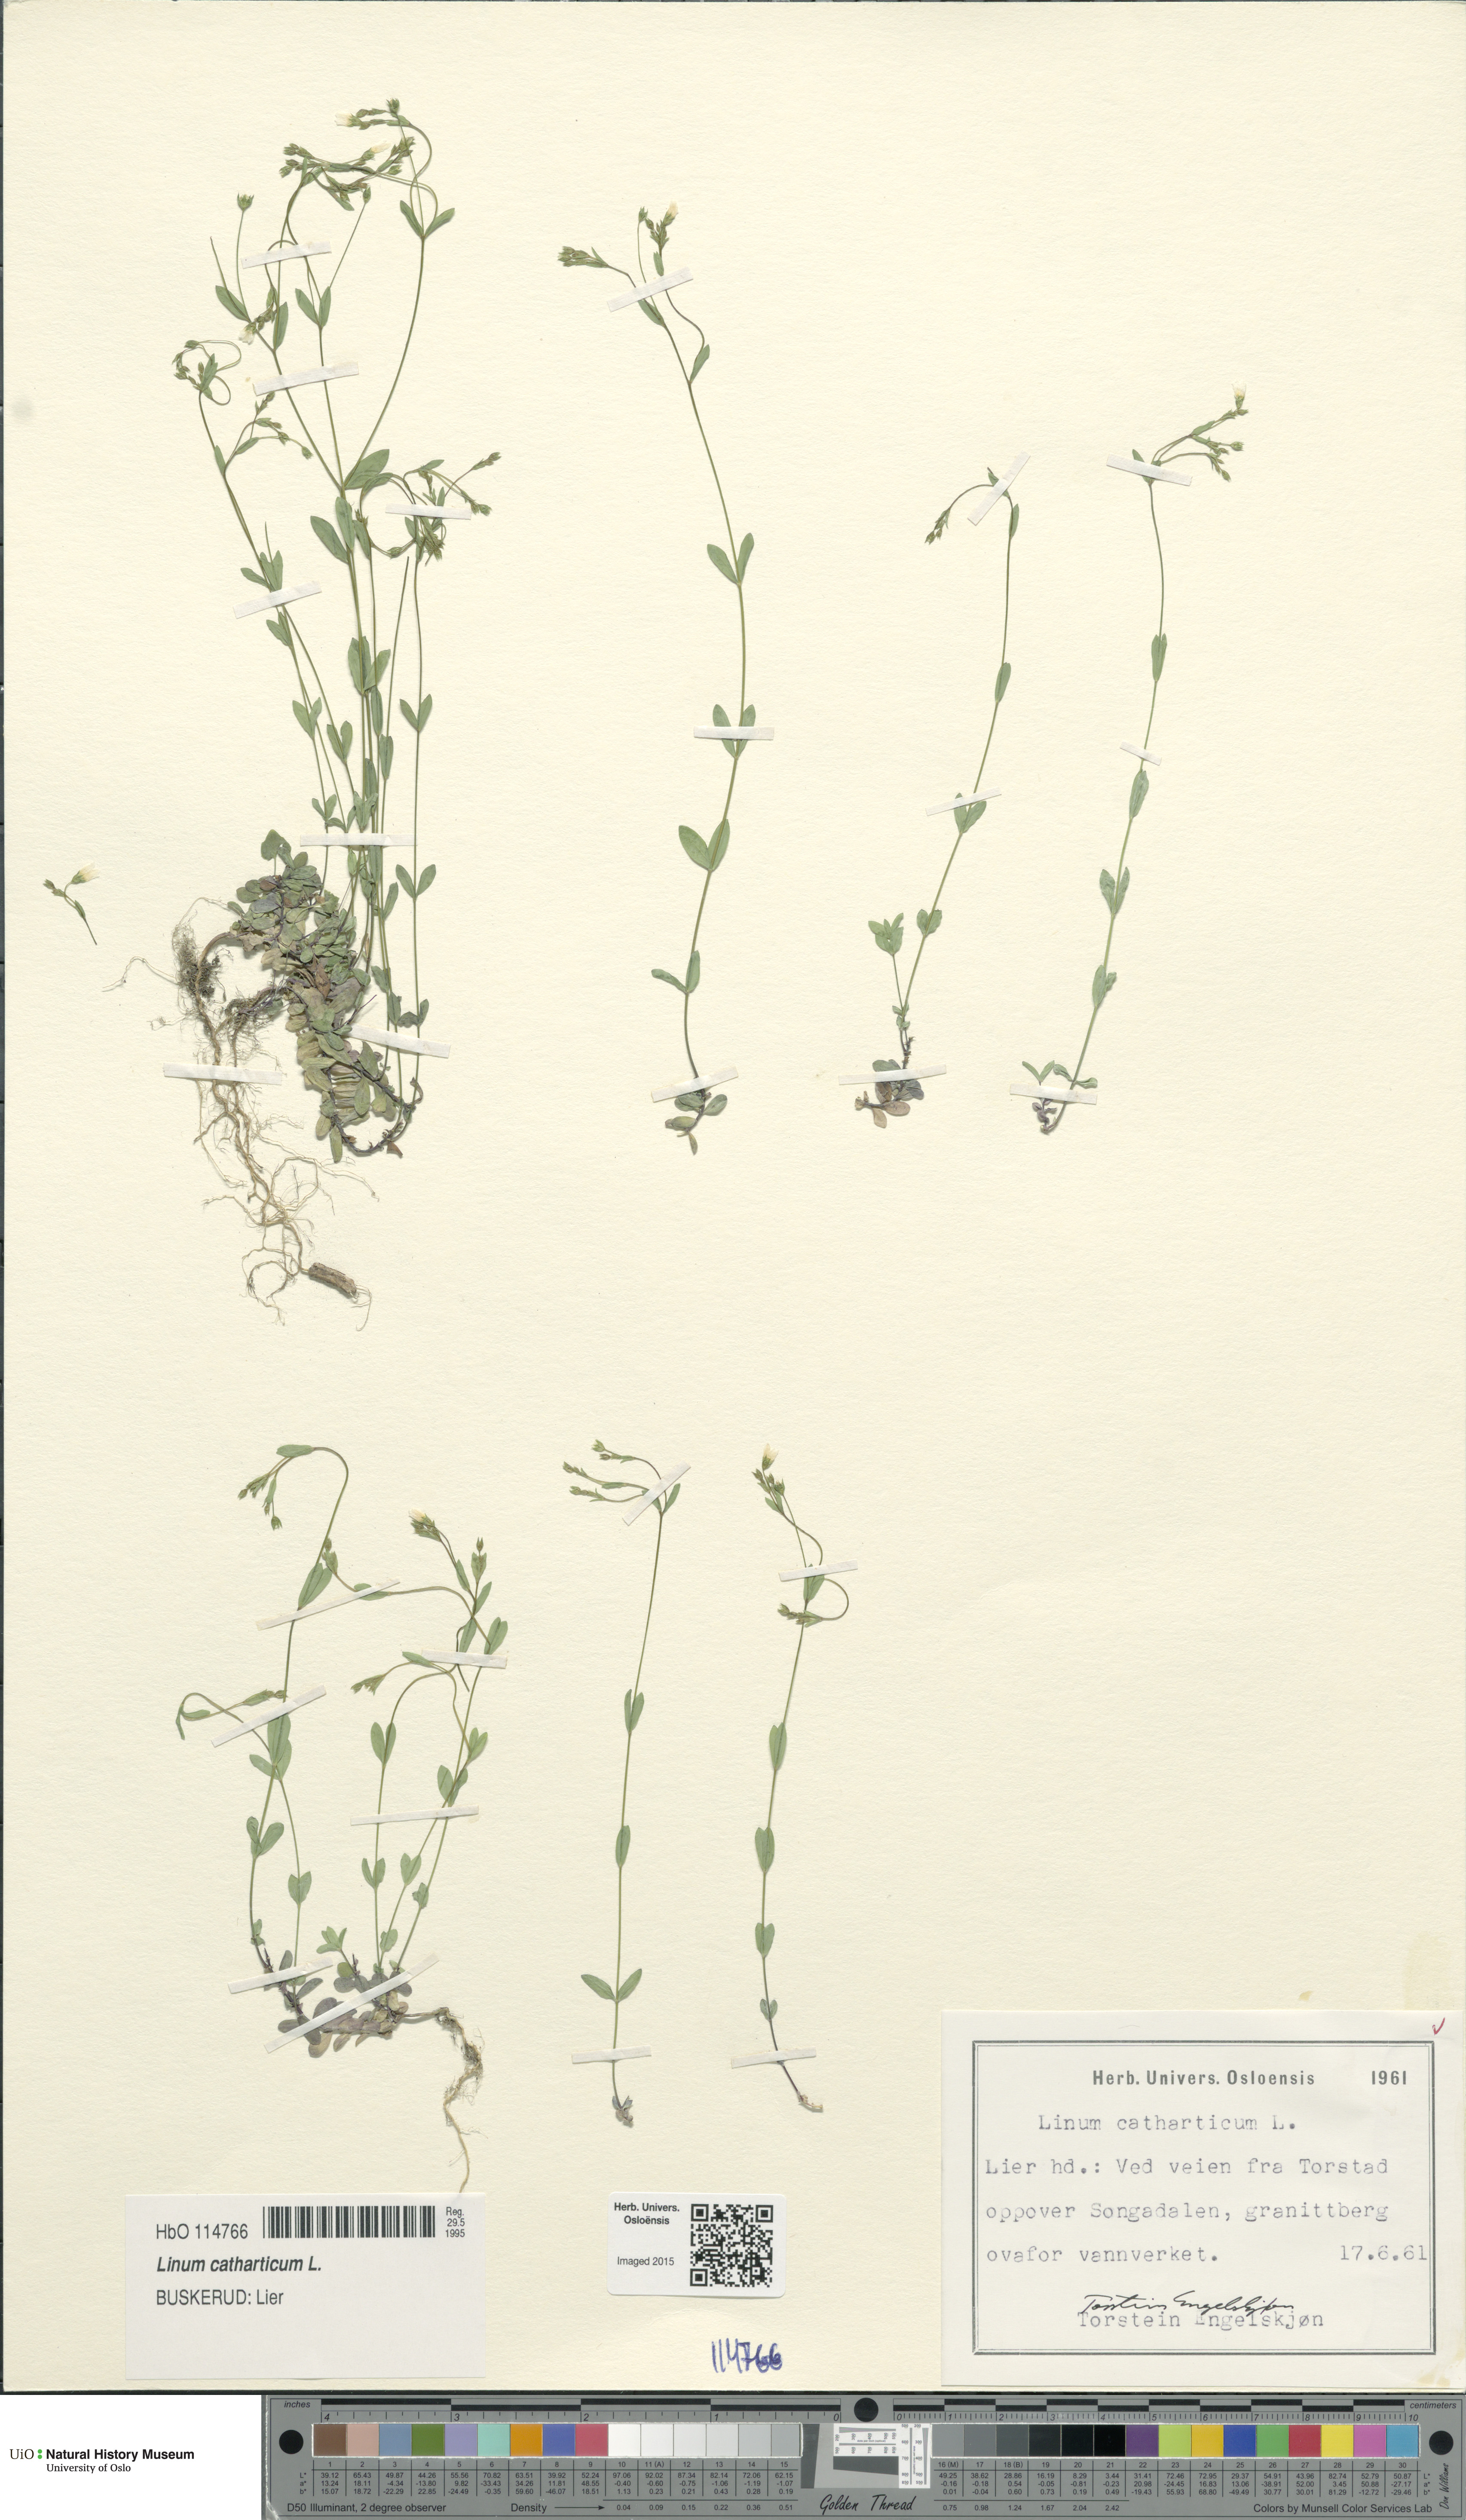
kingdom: Plantae
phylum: Tracheophyta
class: Magnoliopsida
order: Malpighiales
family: Linaceae
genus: Linum
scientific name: Linum catharticum
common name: Fairy flax
